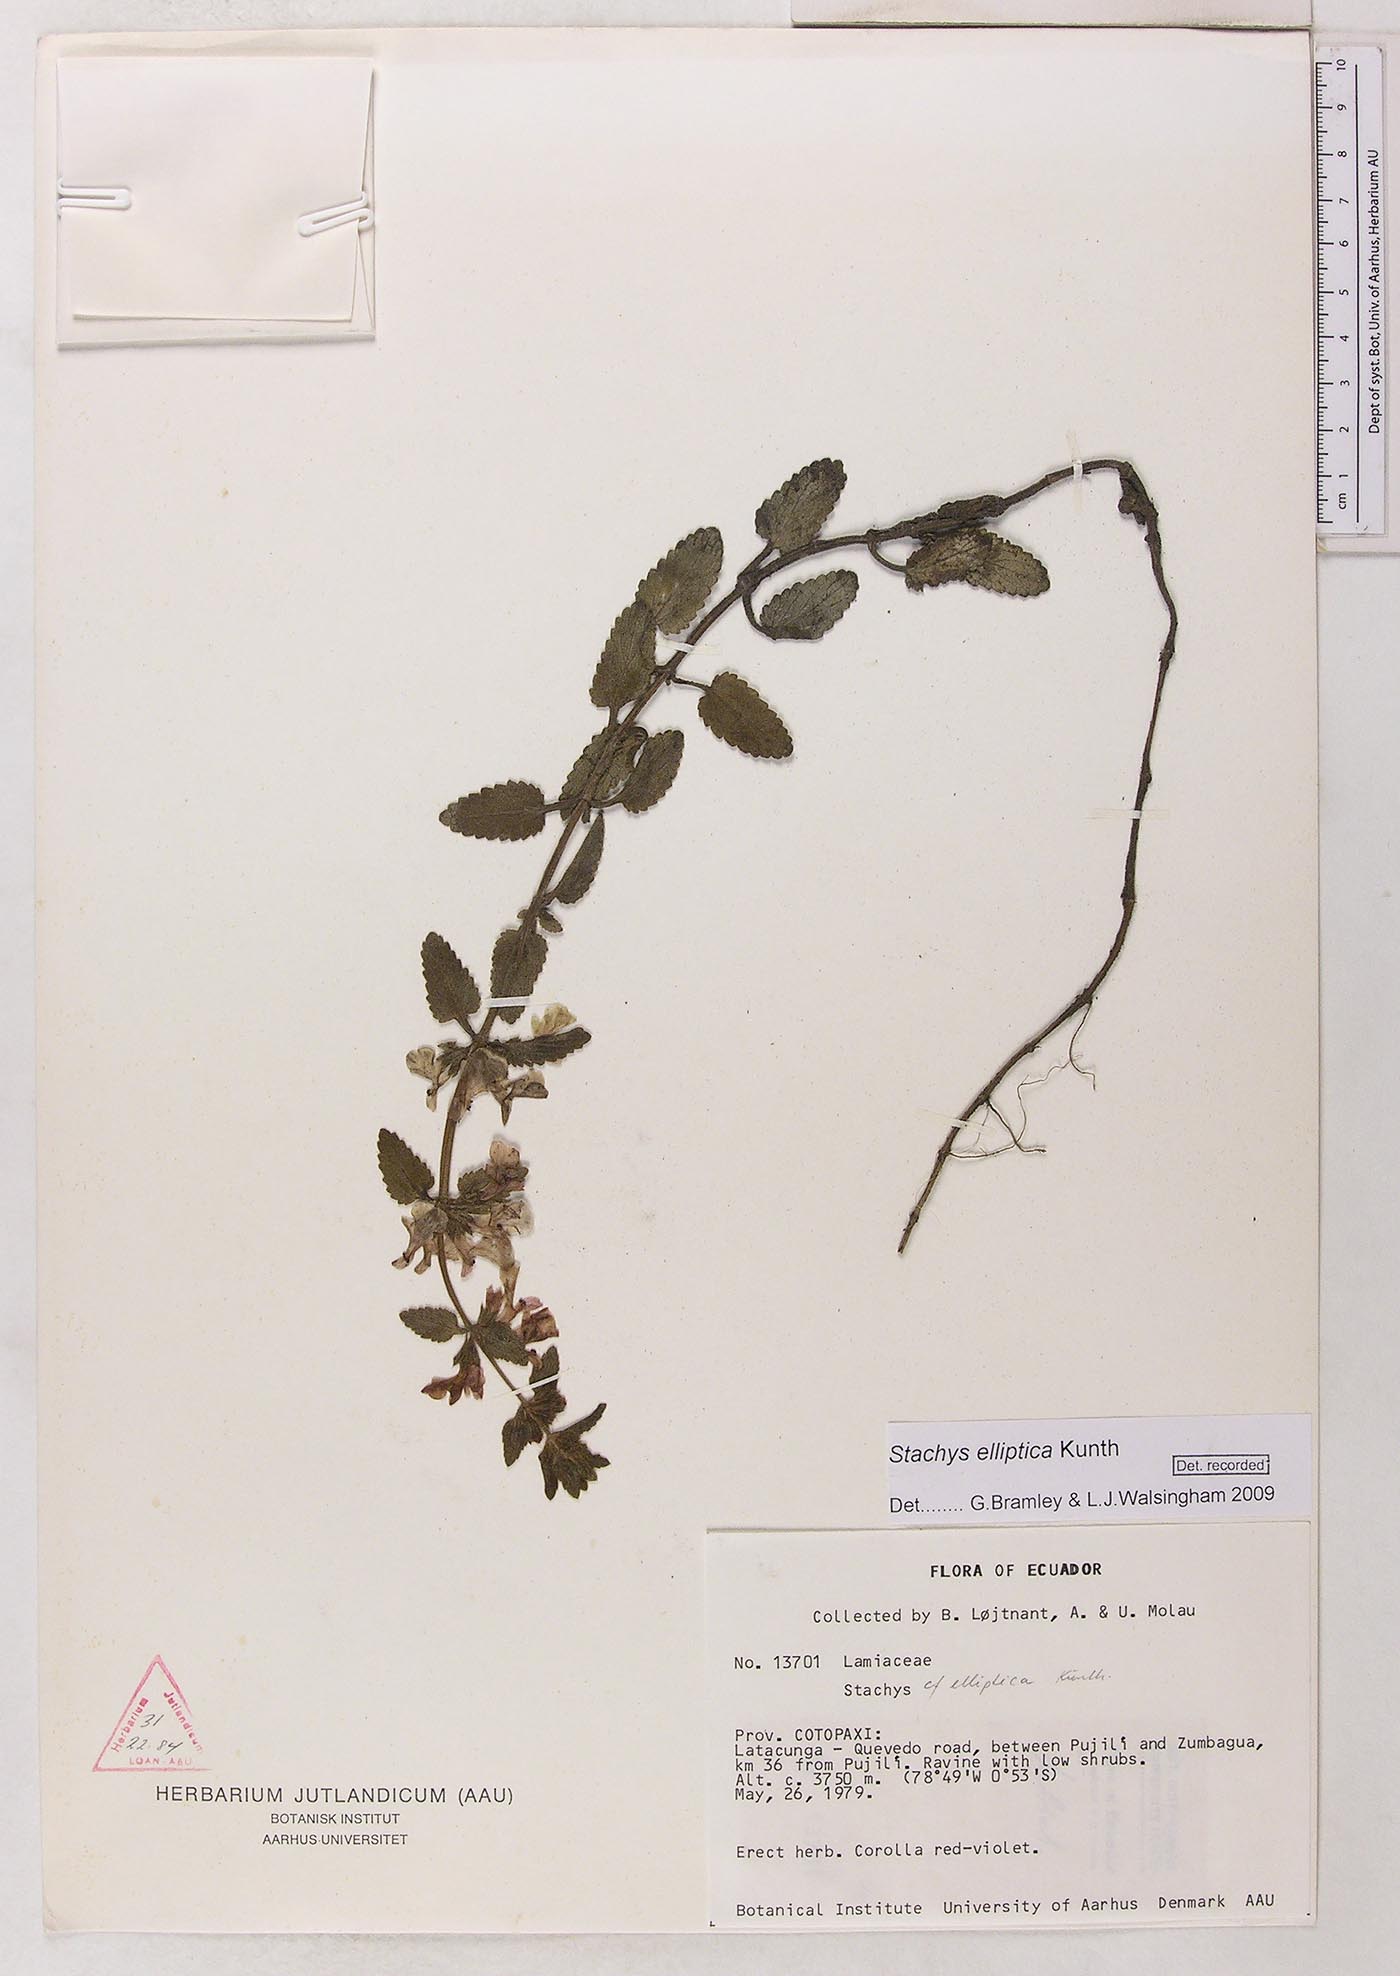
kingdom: Plantae
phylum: Tracheophyta
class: Magnoliopsida
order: Lamiales
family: Lamiaceae
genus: Stachys
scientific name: Stachys elliptica
